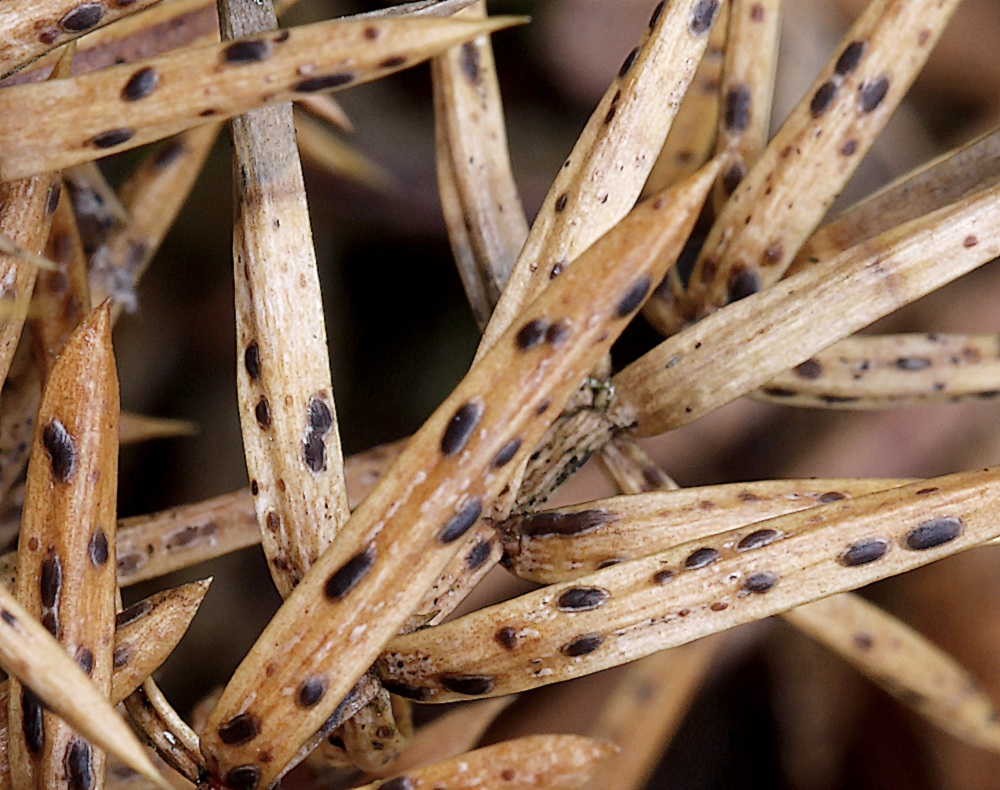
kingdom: Fungi
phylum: Ascomycota
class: Leotiomycetes
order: Rhytismatales
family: Rhytismataceae
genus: Lophodermium
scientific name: Lophodermium juniperinum
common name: ene-fureplet
